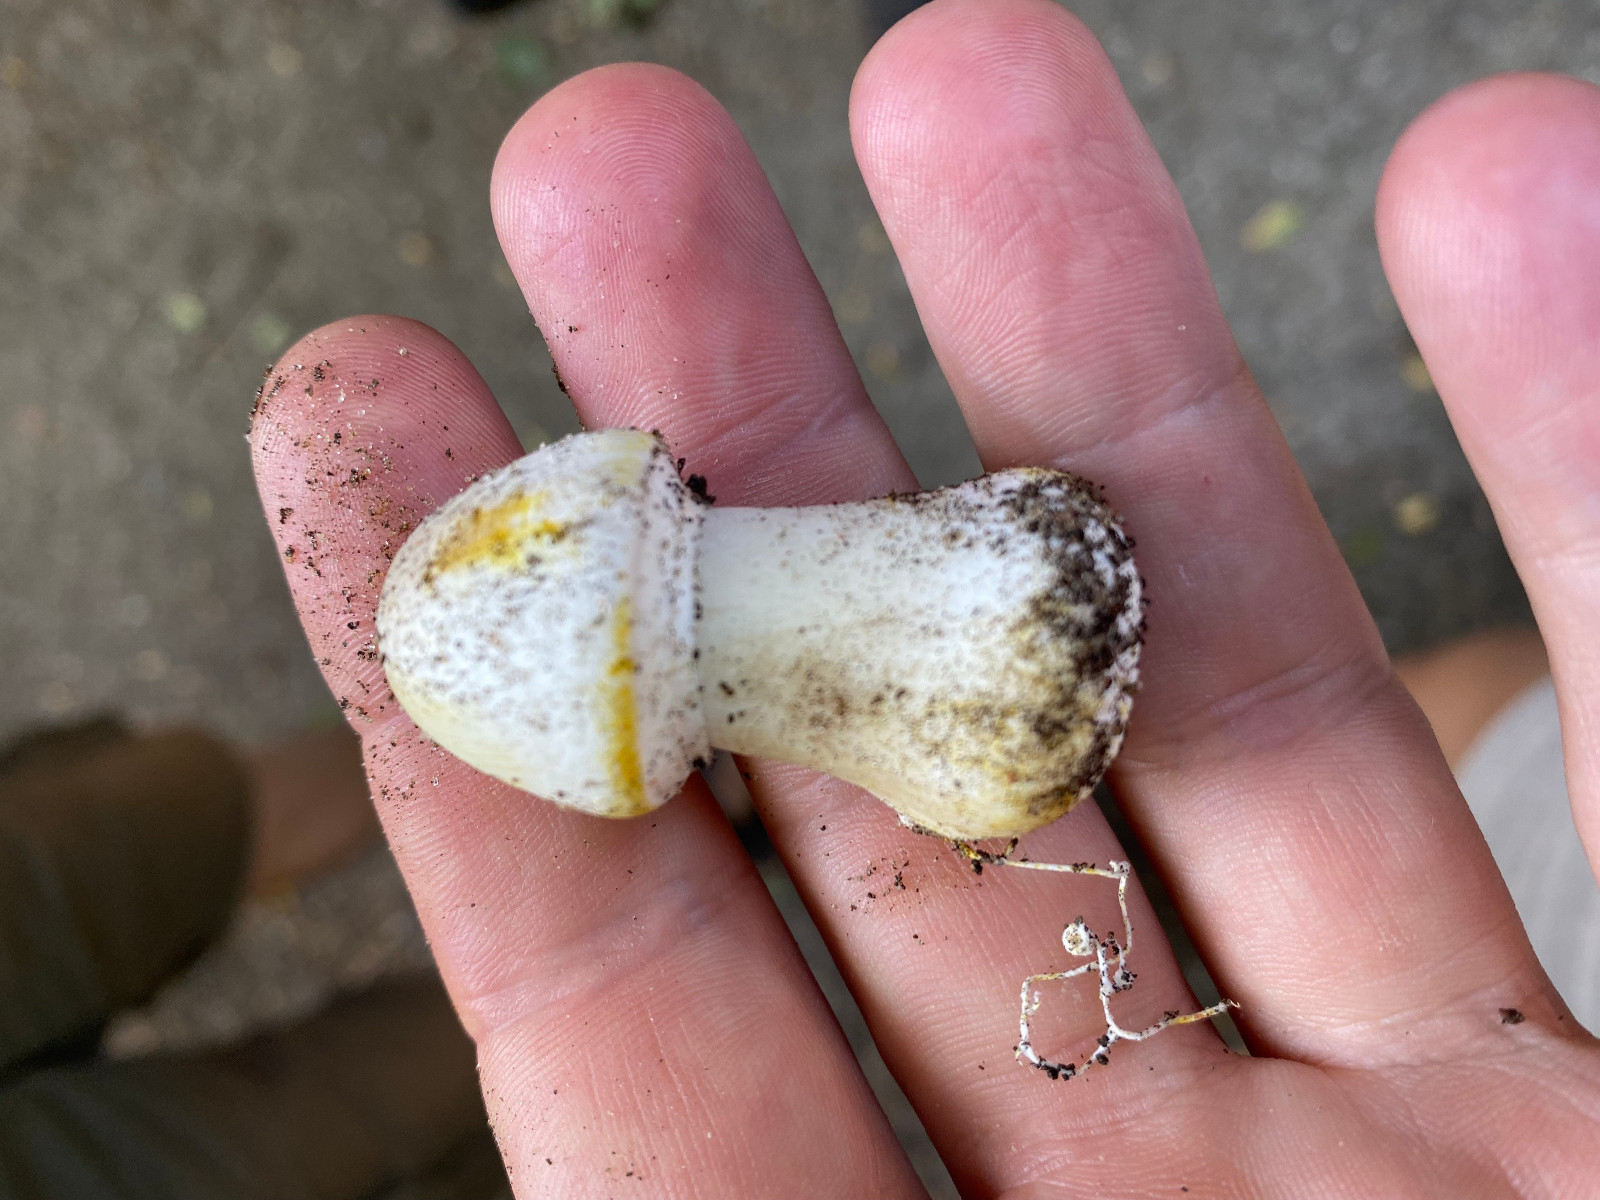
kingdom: Fungi
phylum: Basidiomycota
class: Agaricomycetes
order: Agaricales
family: Agaricaceae
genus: Agaricus
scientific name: Agaricus xanthodermus
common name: karbol-champignon
